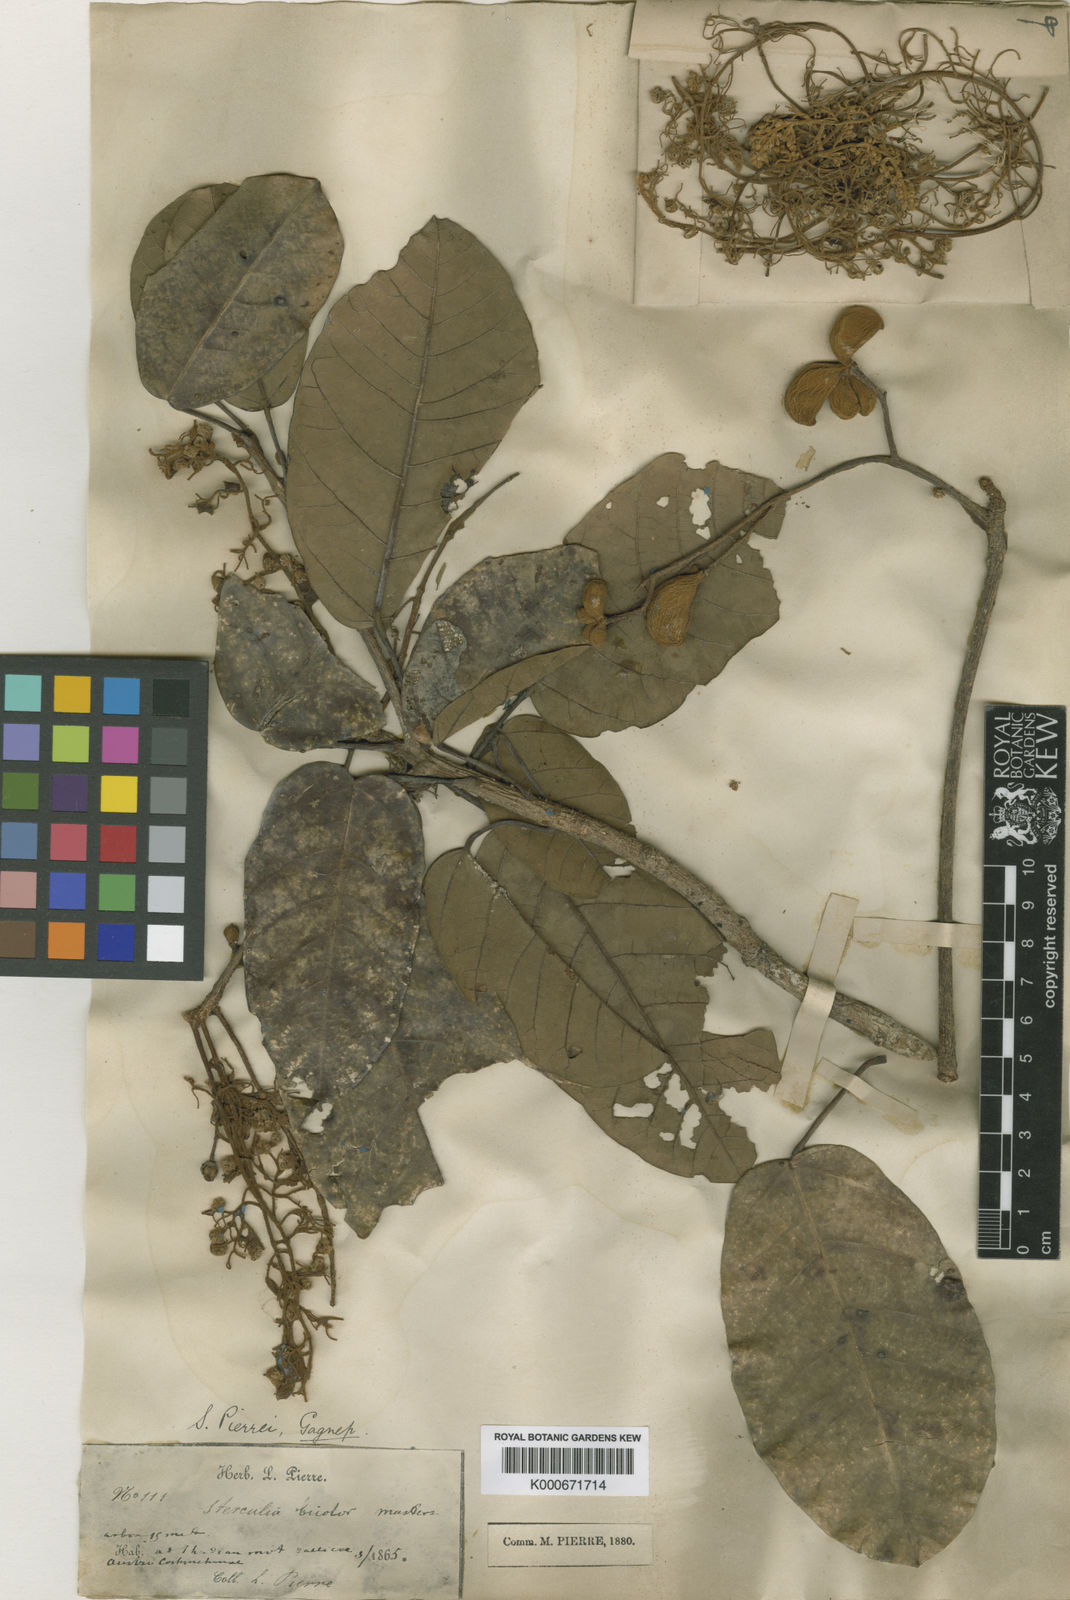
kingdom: Plantae
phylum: Tracheophyta
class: Magnoliopsida
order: Malvales
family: Malvaceae
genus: Sterculia
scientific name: Sterculia
